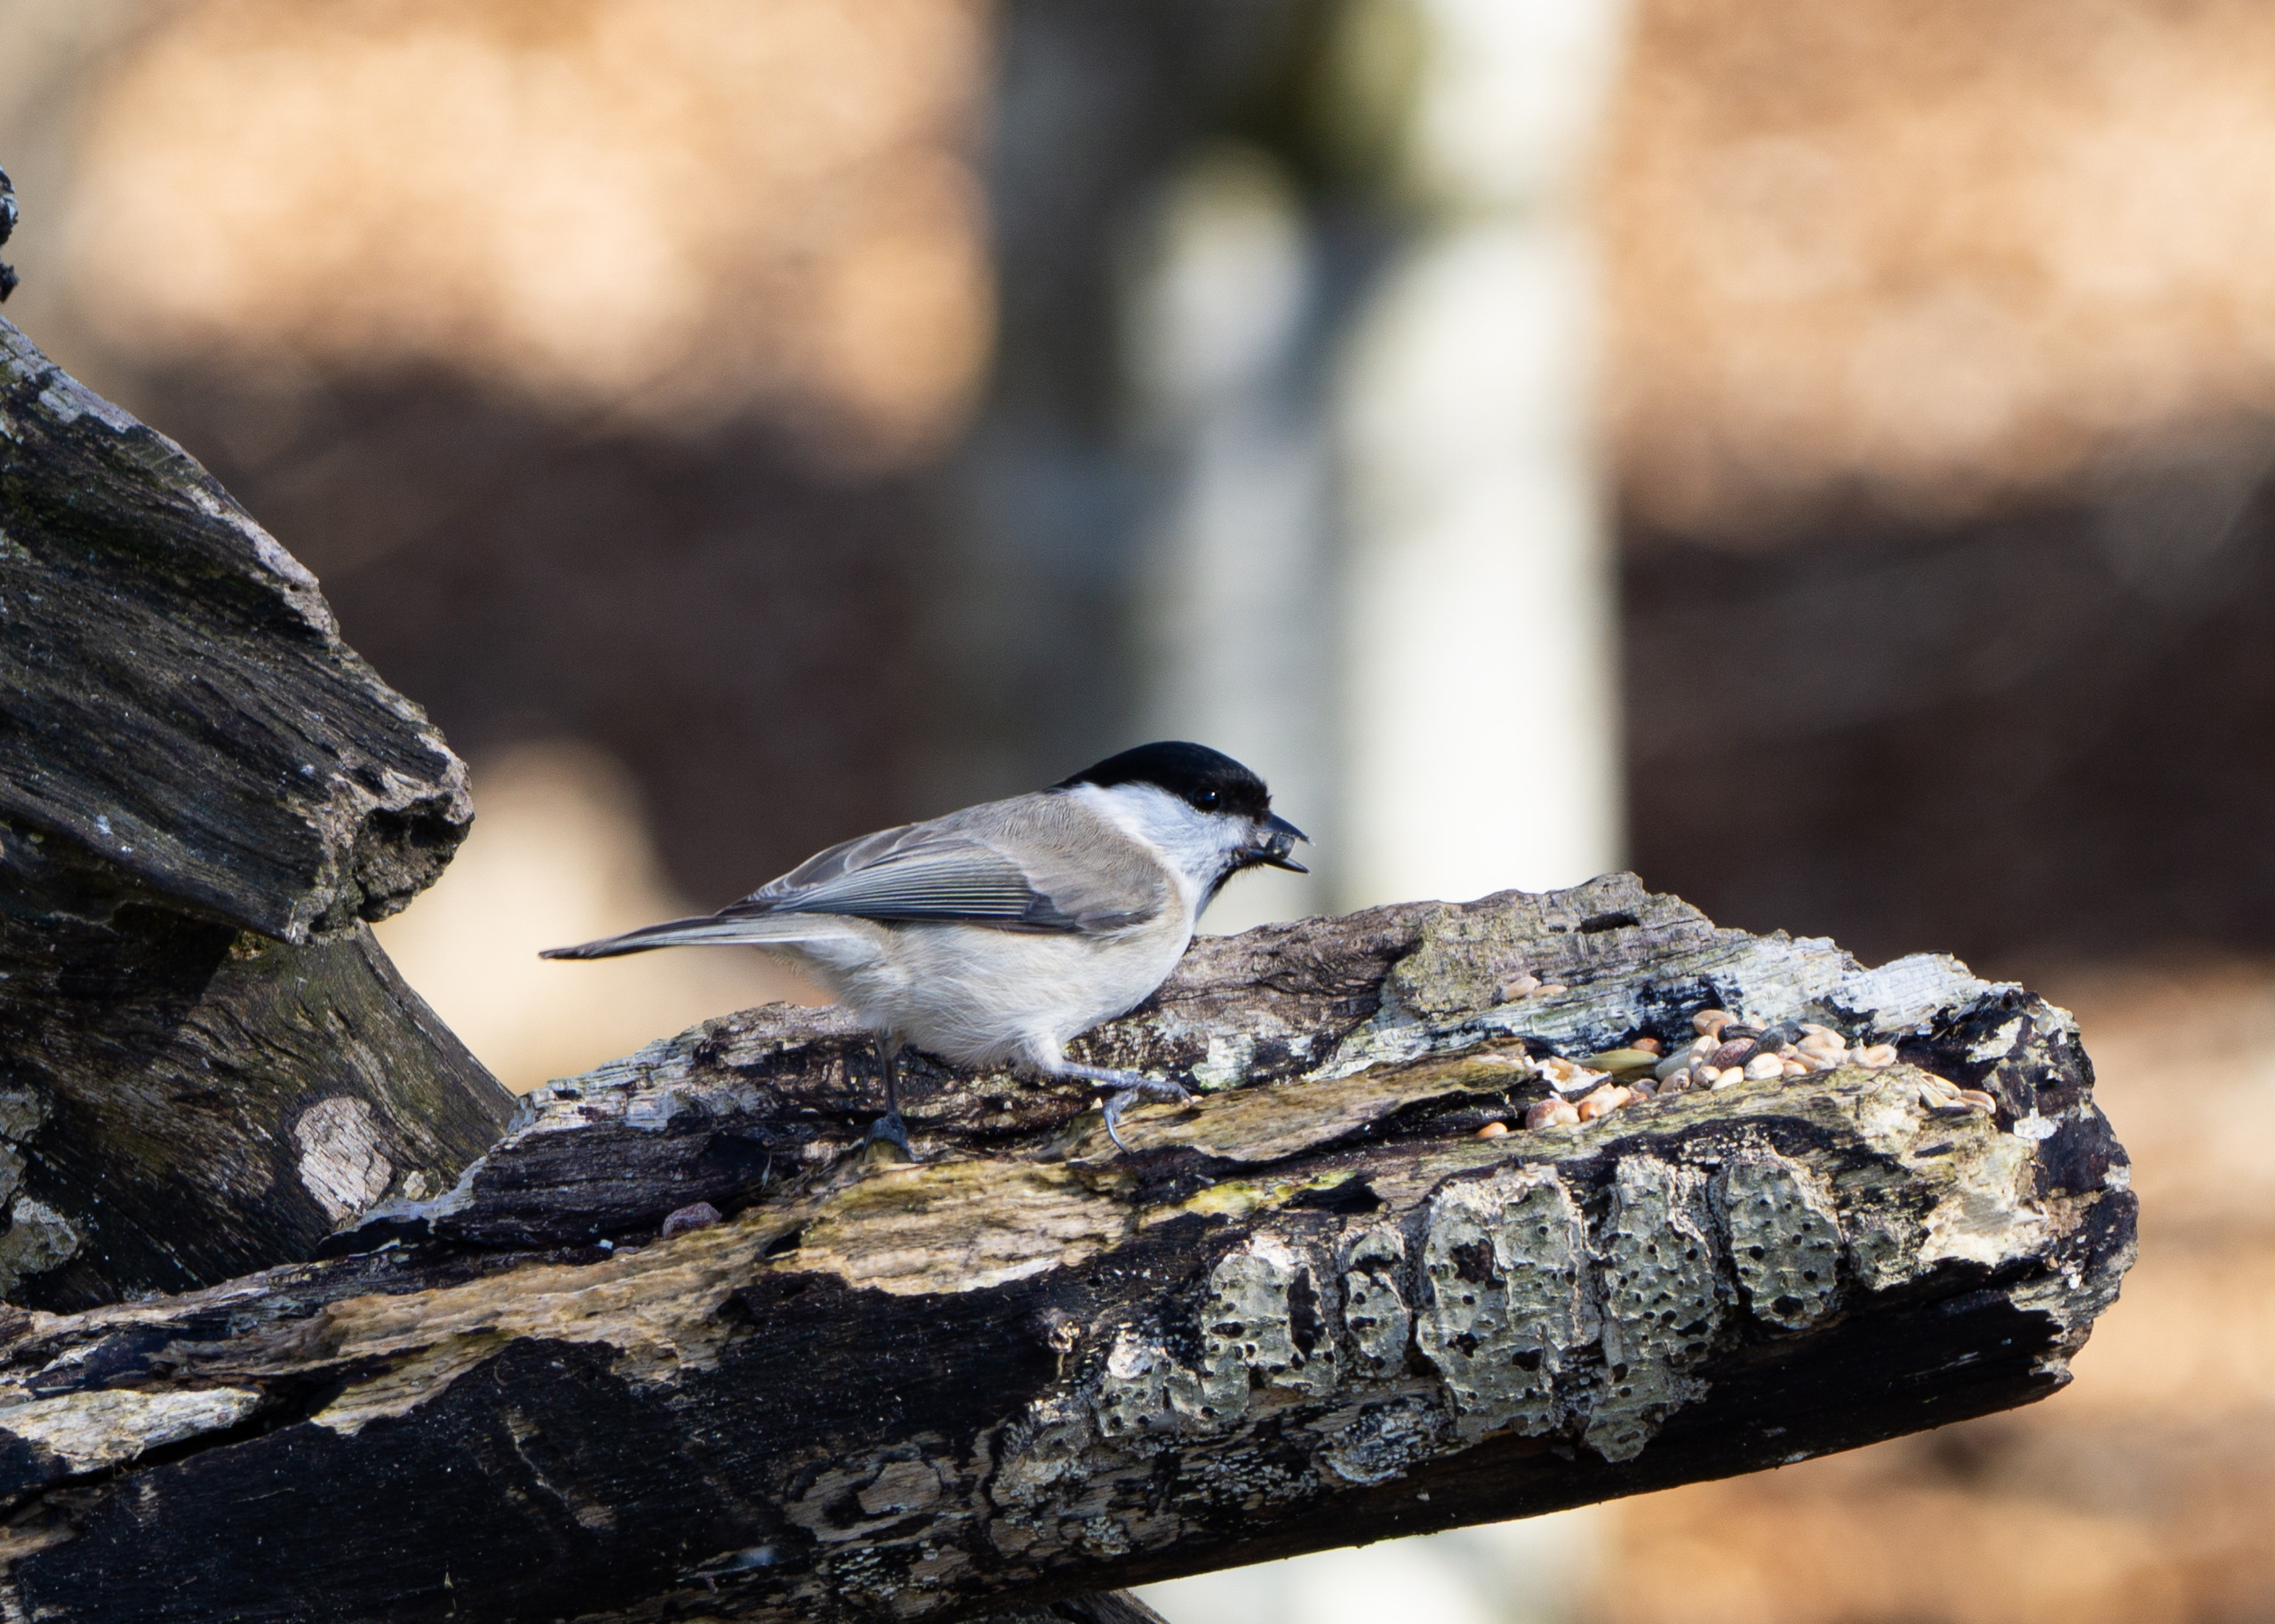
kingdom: Animalia
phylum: Chordata
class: Aves
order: Passeriformes
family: Paridae
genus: Poecile
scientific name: Poecile palustris
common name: Sumpmejse
